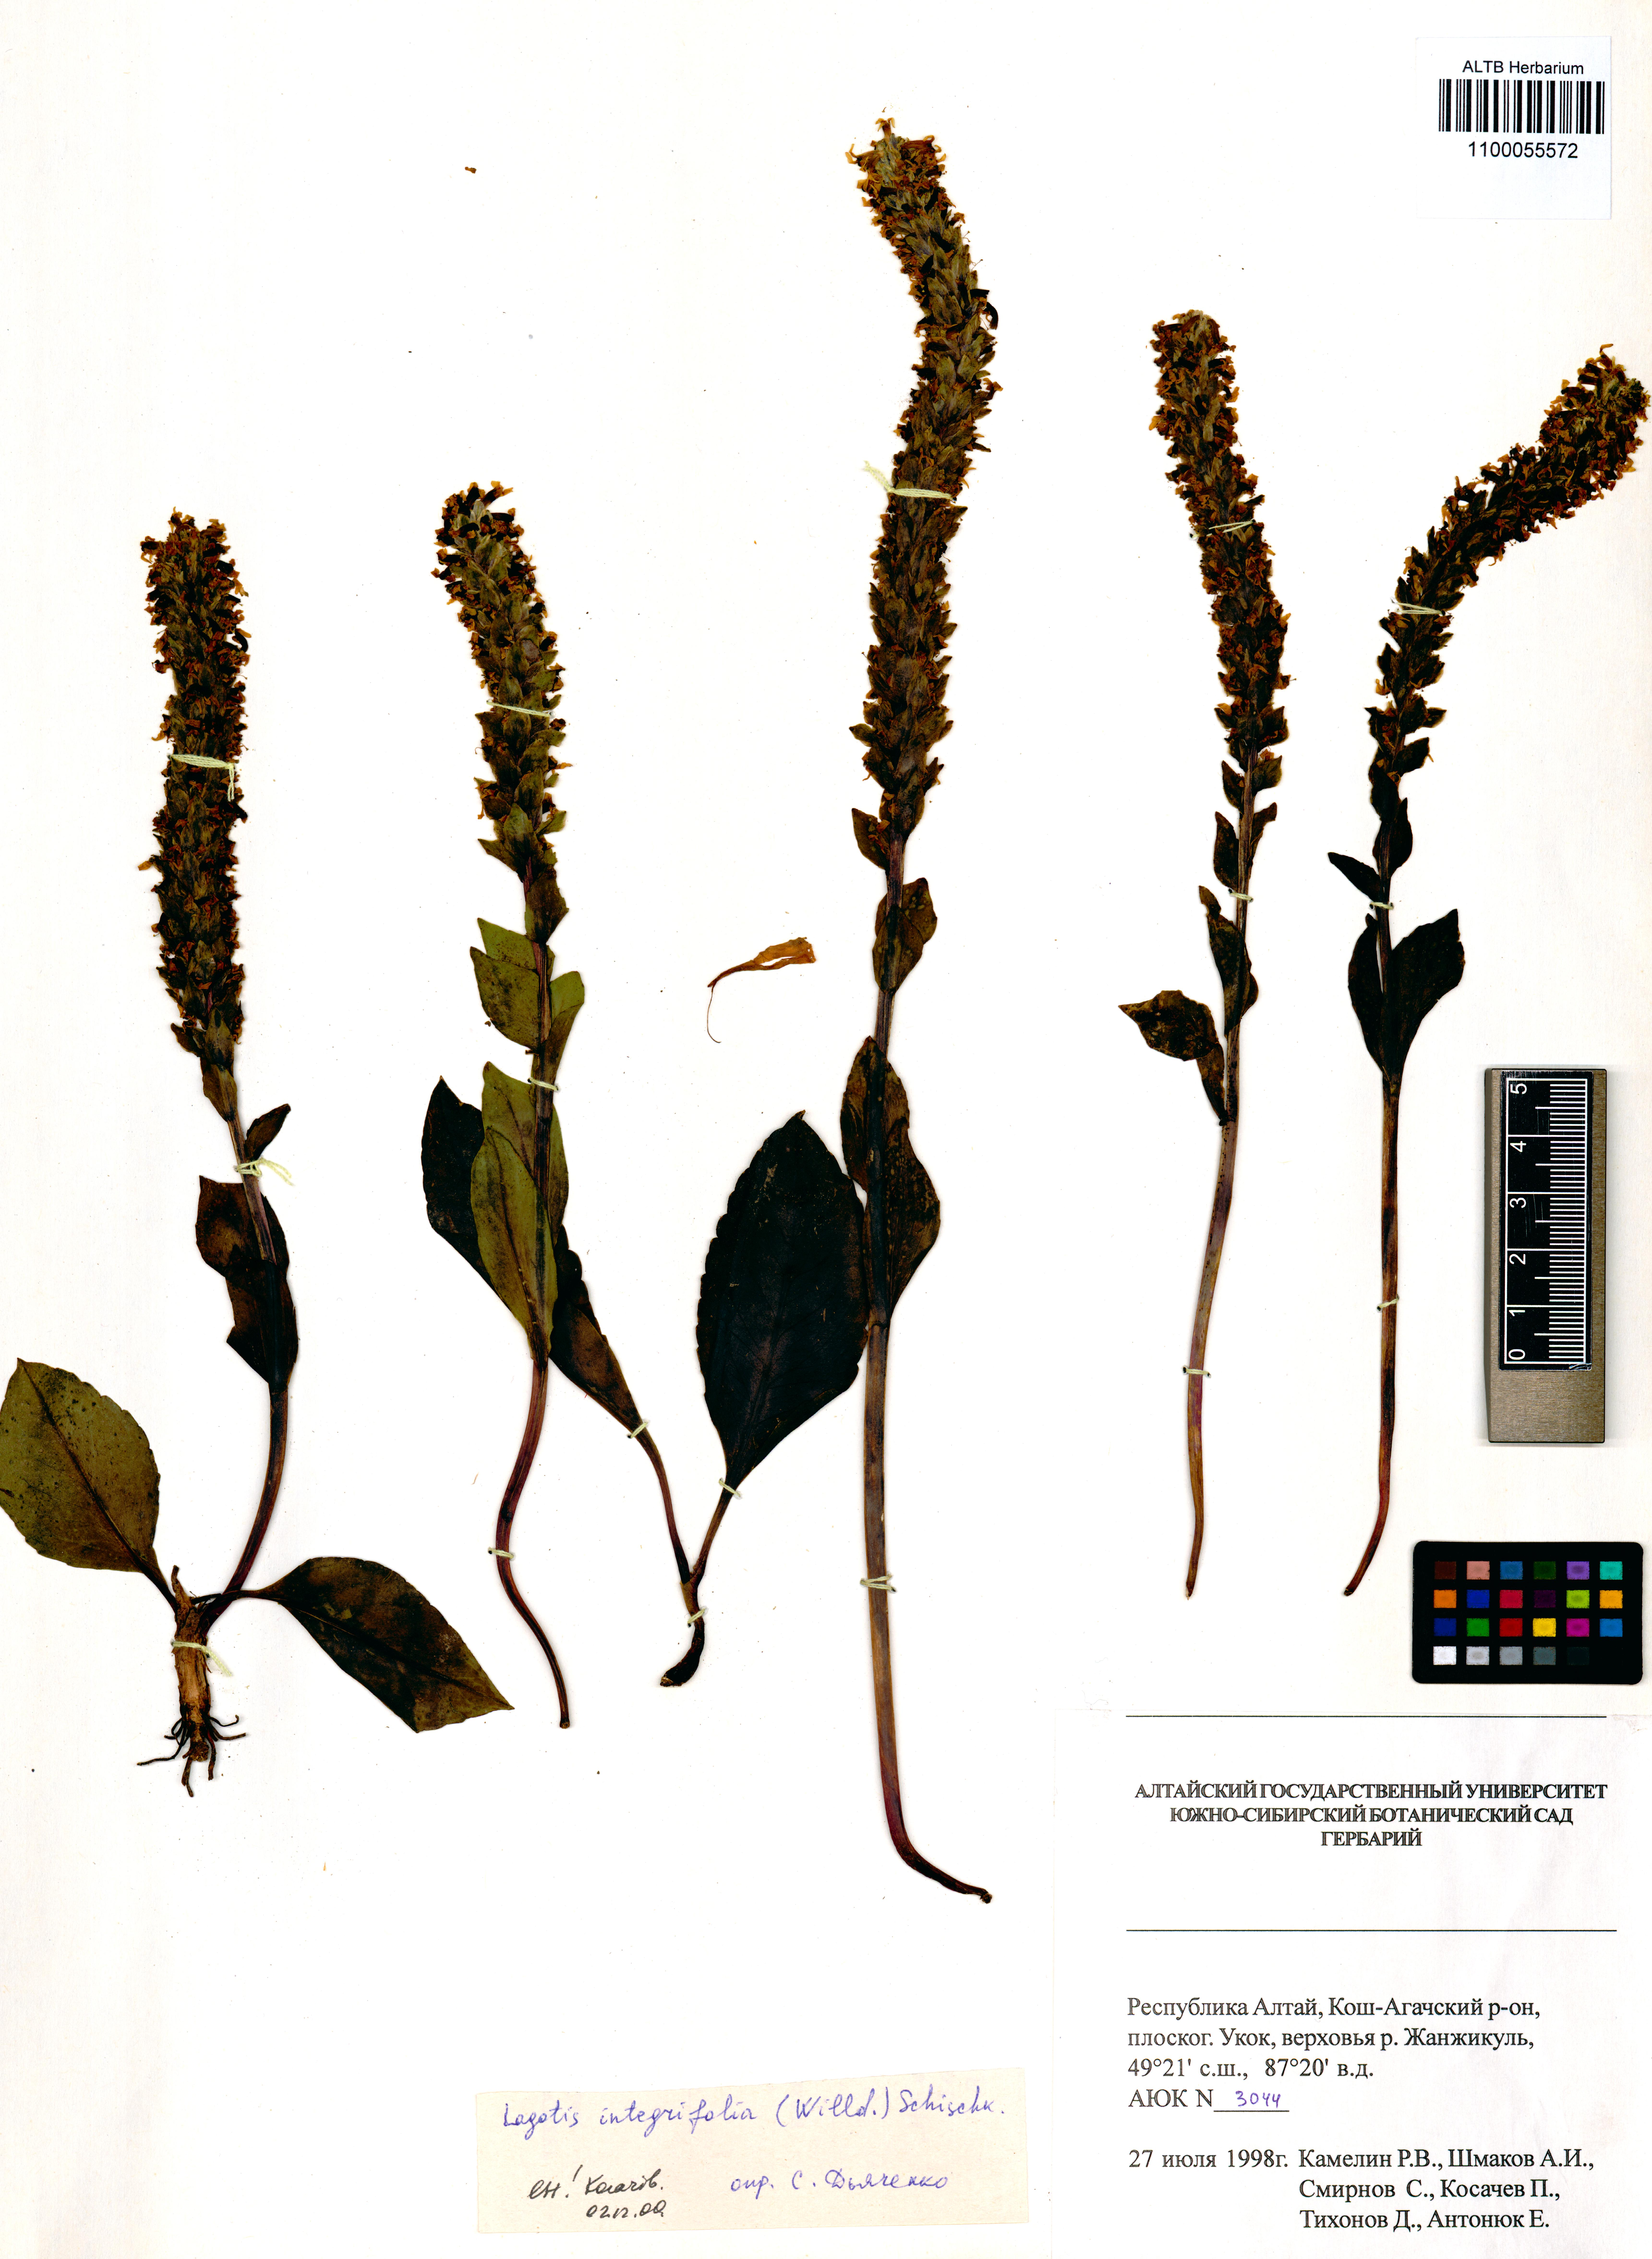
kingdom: Plantae
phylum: Tracheophyta
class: Magnoliopsida
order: Lamiales
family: Plantaginaceae
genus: Lagotis
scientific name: Lagotis integrifolia
